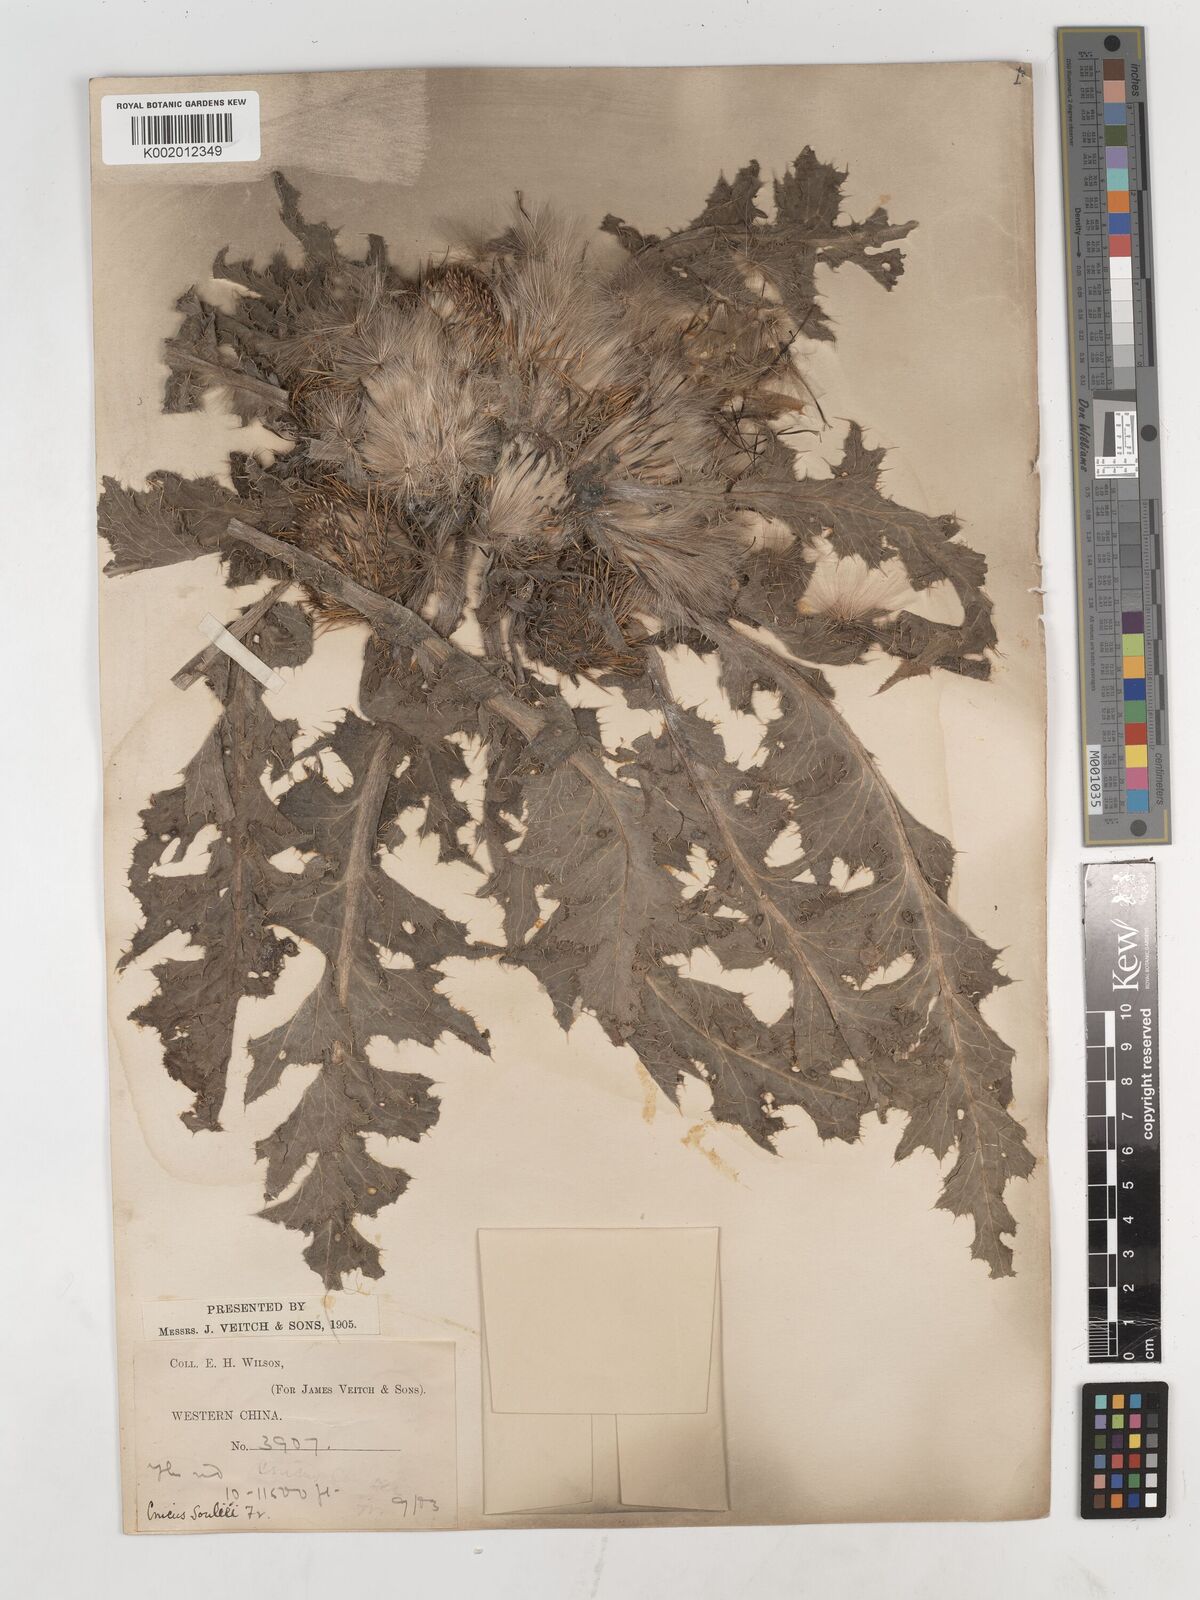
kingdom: Plantae
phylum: Tracheophyta
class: Magnoliopsida
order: Asterales
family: Asteraceae
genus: Cirsium
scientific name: Cirsium souliei
